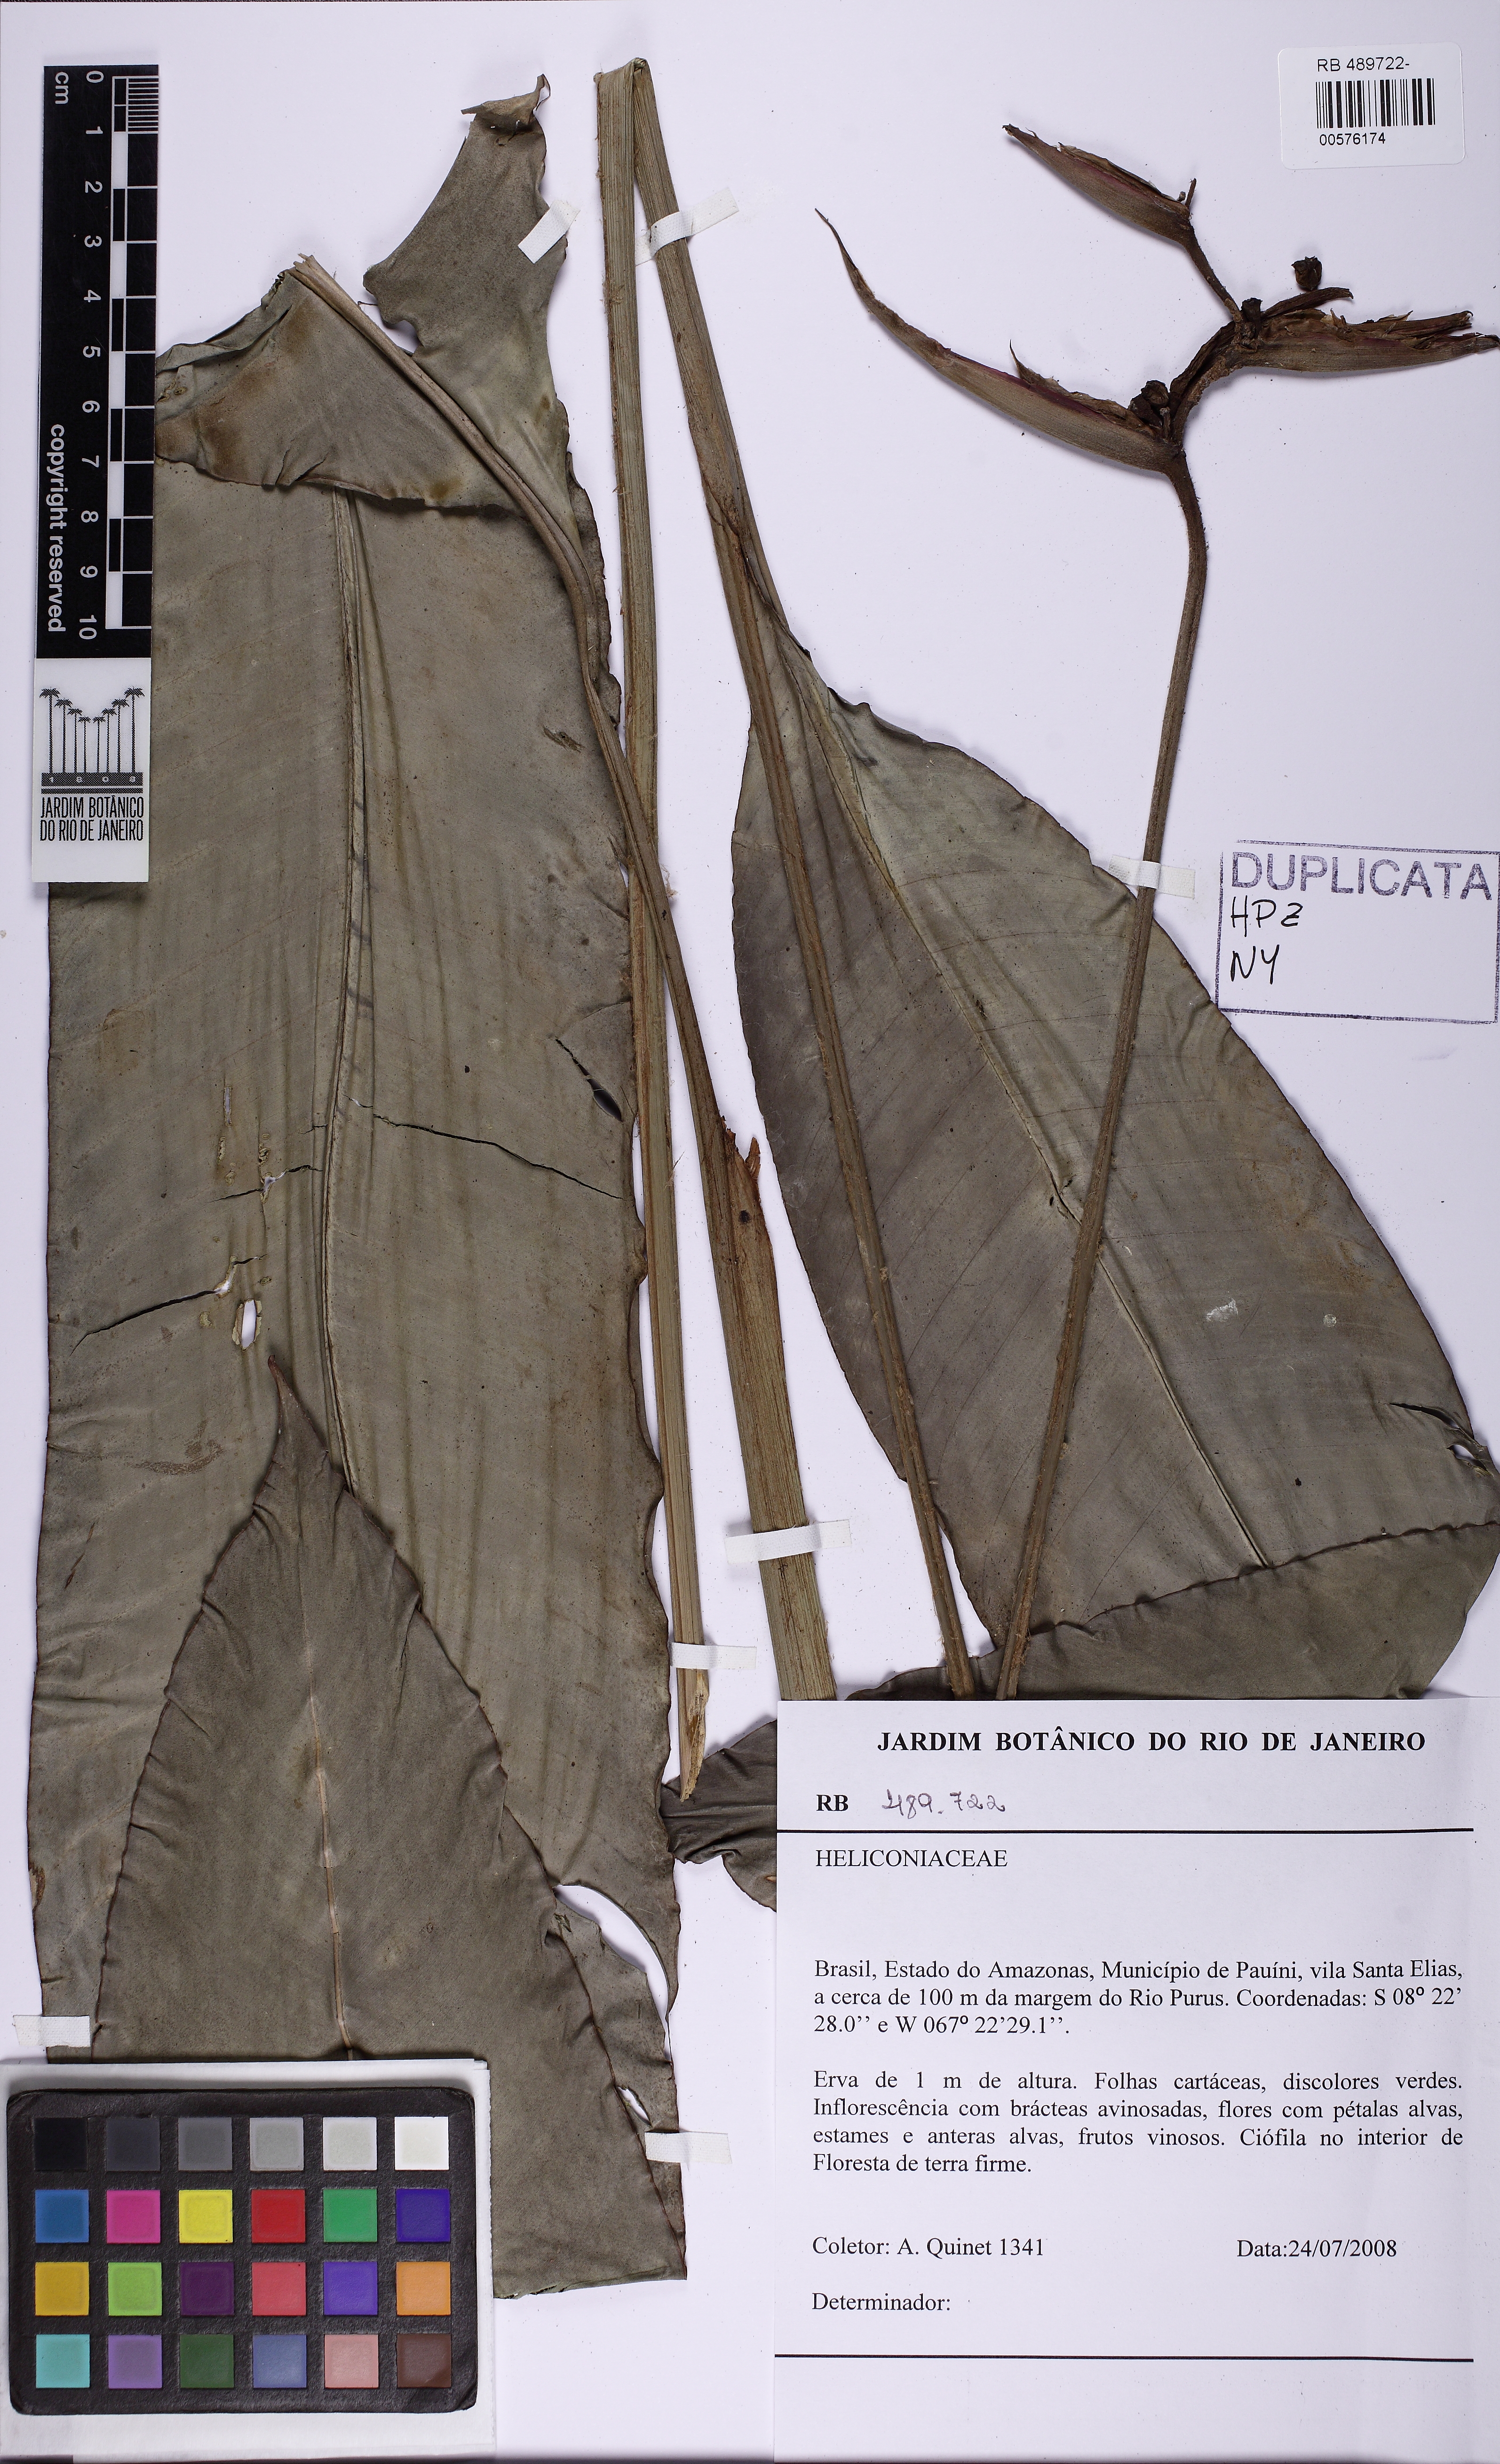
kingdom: Plantae
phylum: Tracheophyta
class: Liliopsida
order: Zingiberales
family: Heliconiaceae
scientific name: Heliconiaceae
